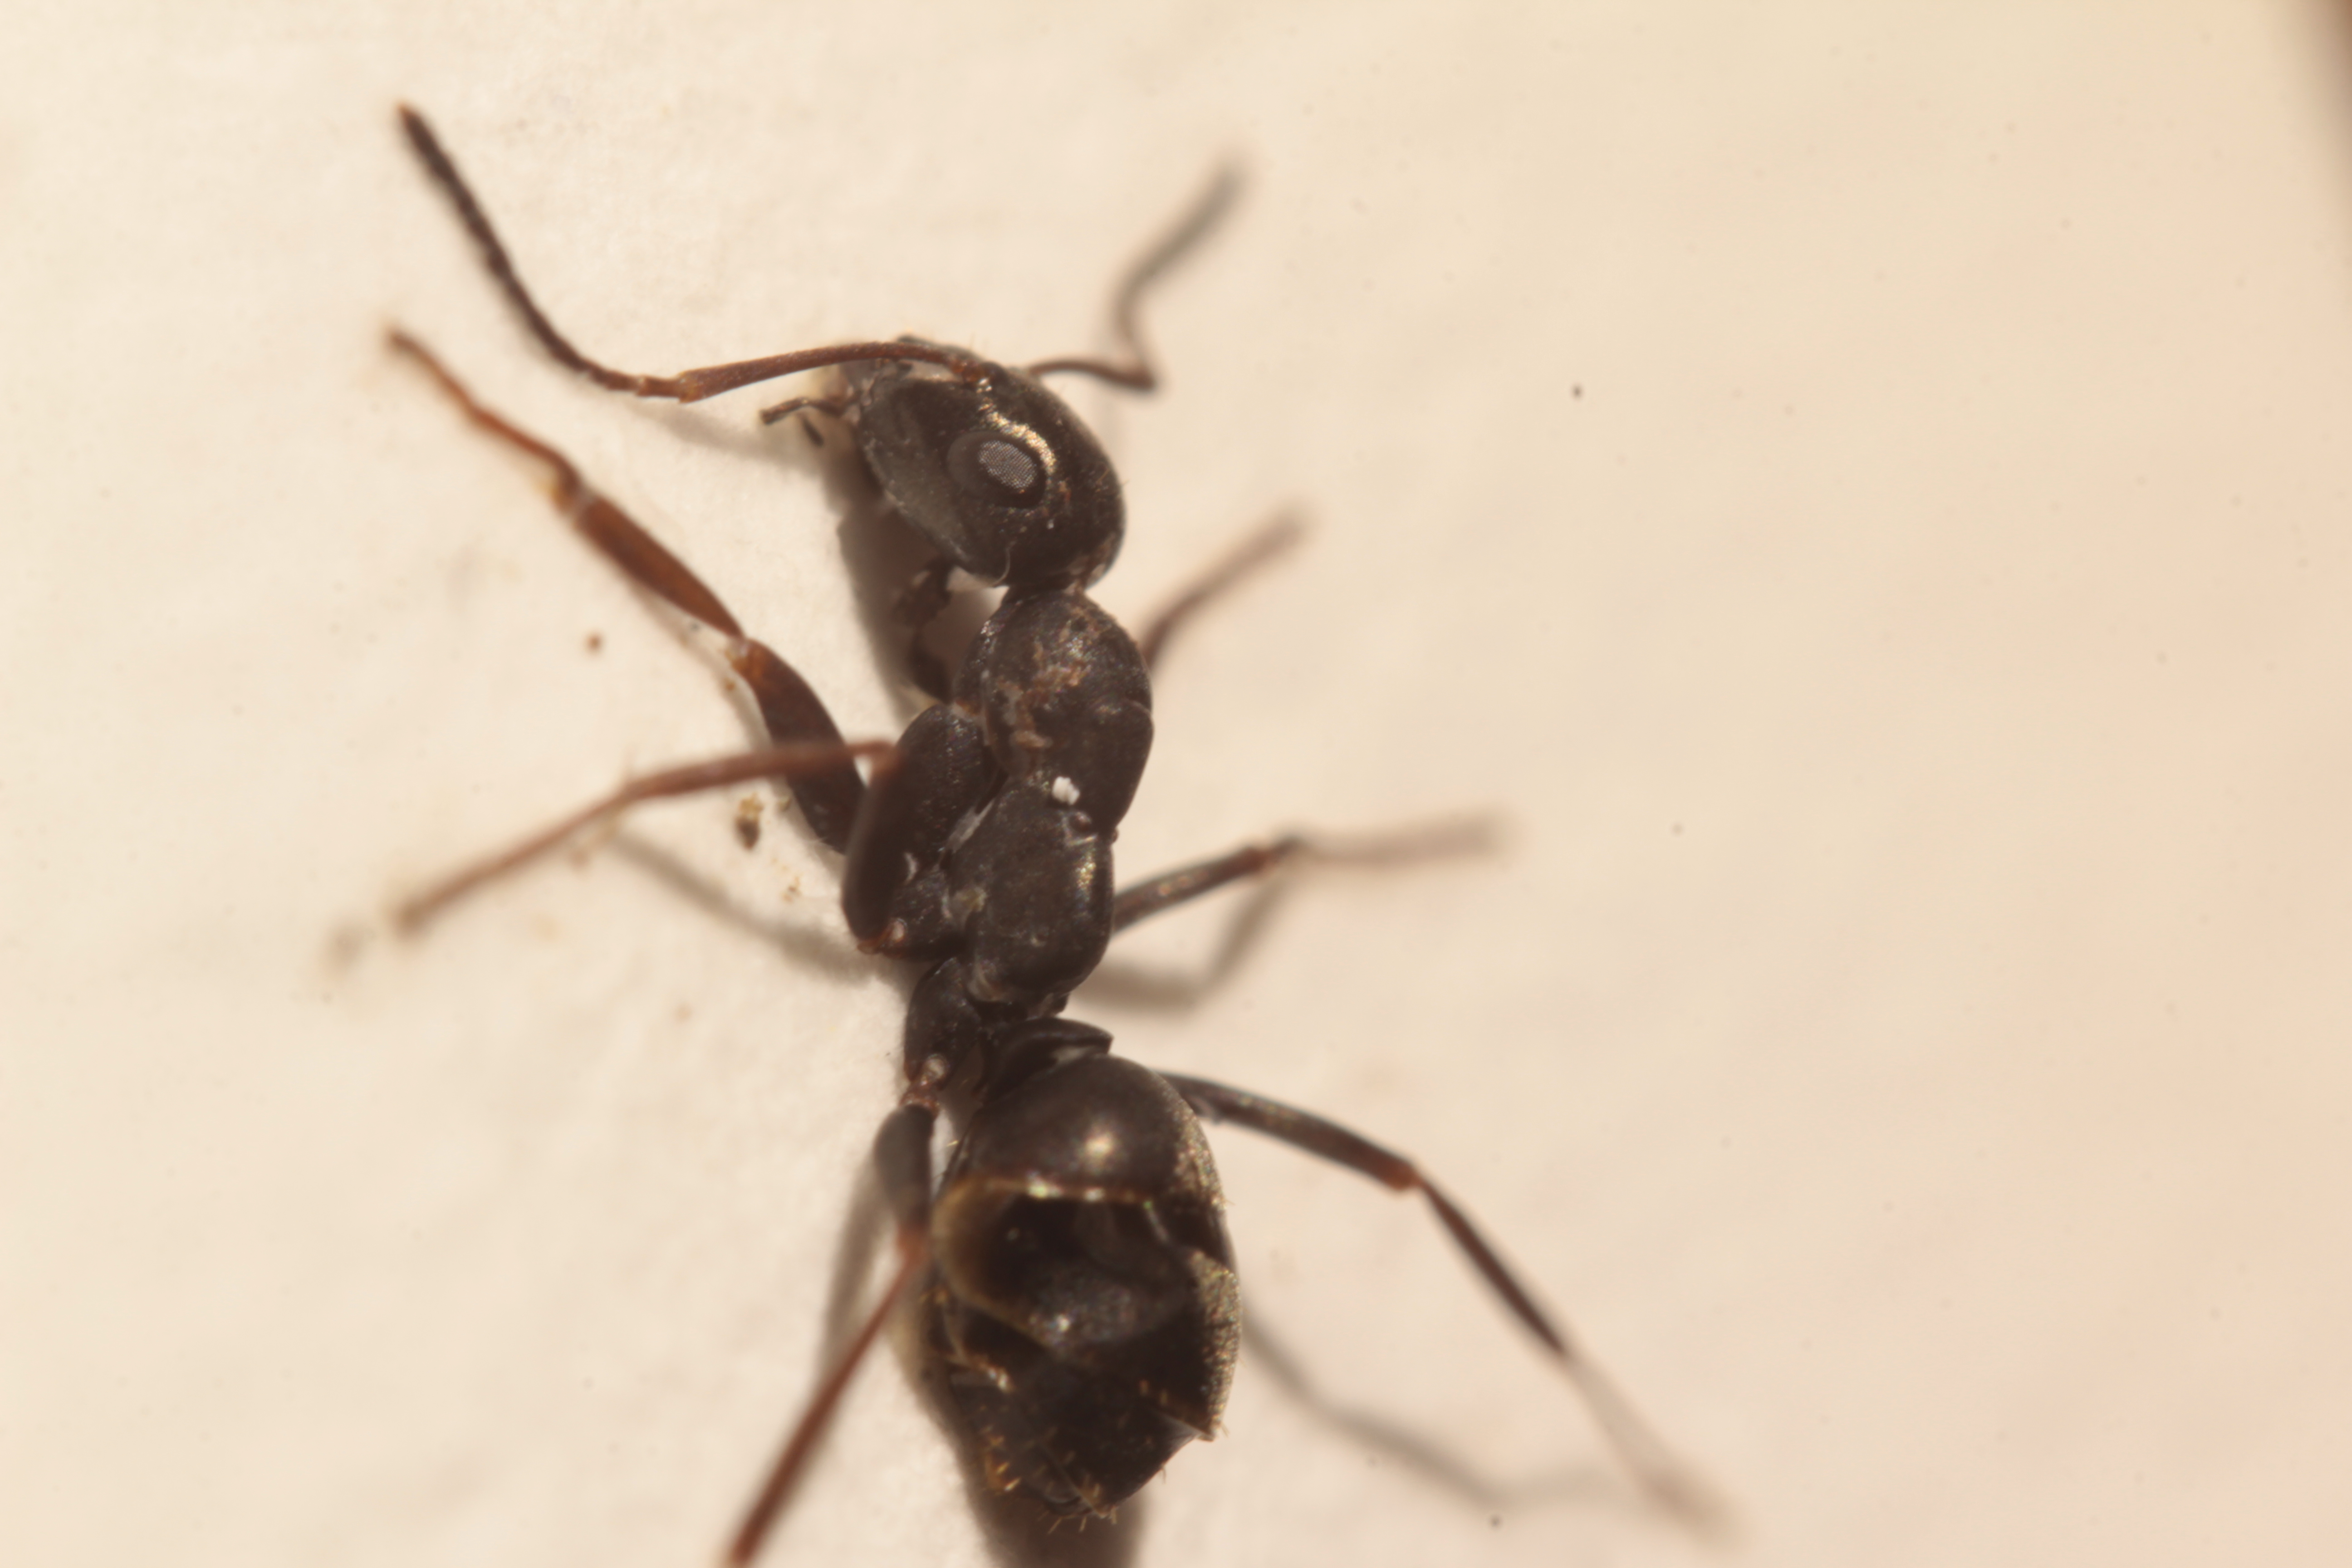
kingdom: Animalia
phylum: Arthropoda
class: Insecta
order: Hymenoptera
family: Formicidae
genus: Formica
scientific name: Formica fusca
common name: Silky ant
